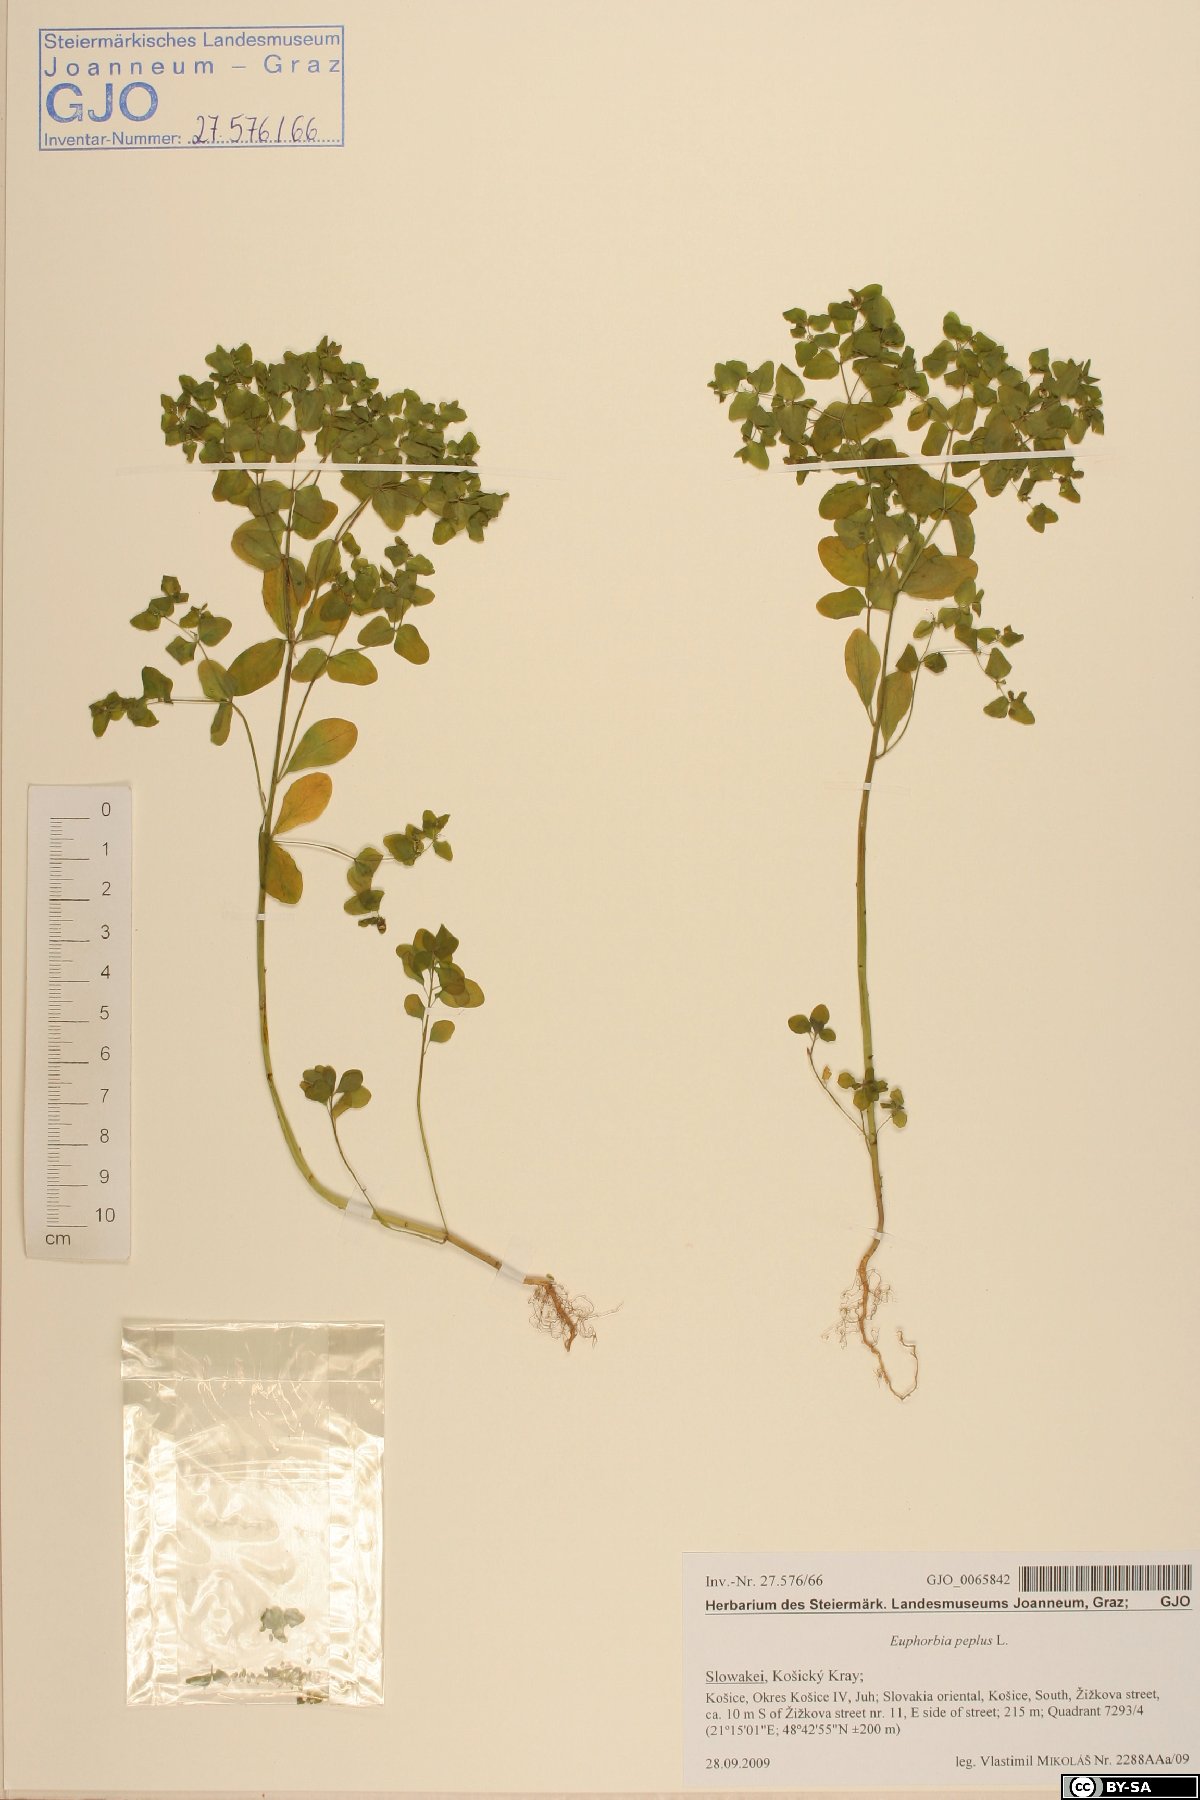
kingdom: Plantae
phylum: Tracheophyta
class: Magnoliopsida
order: Malpighiales
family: Euphorbiaceae
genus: Euphorbia
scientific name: Euphorbia peplus
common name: Petty spurge
